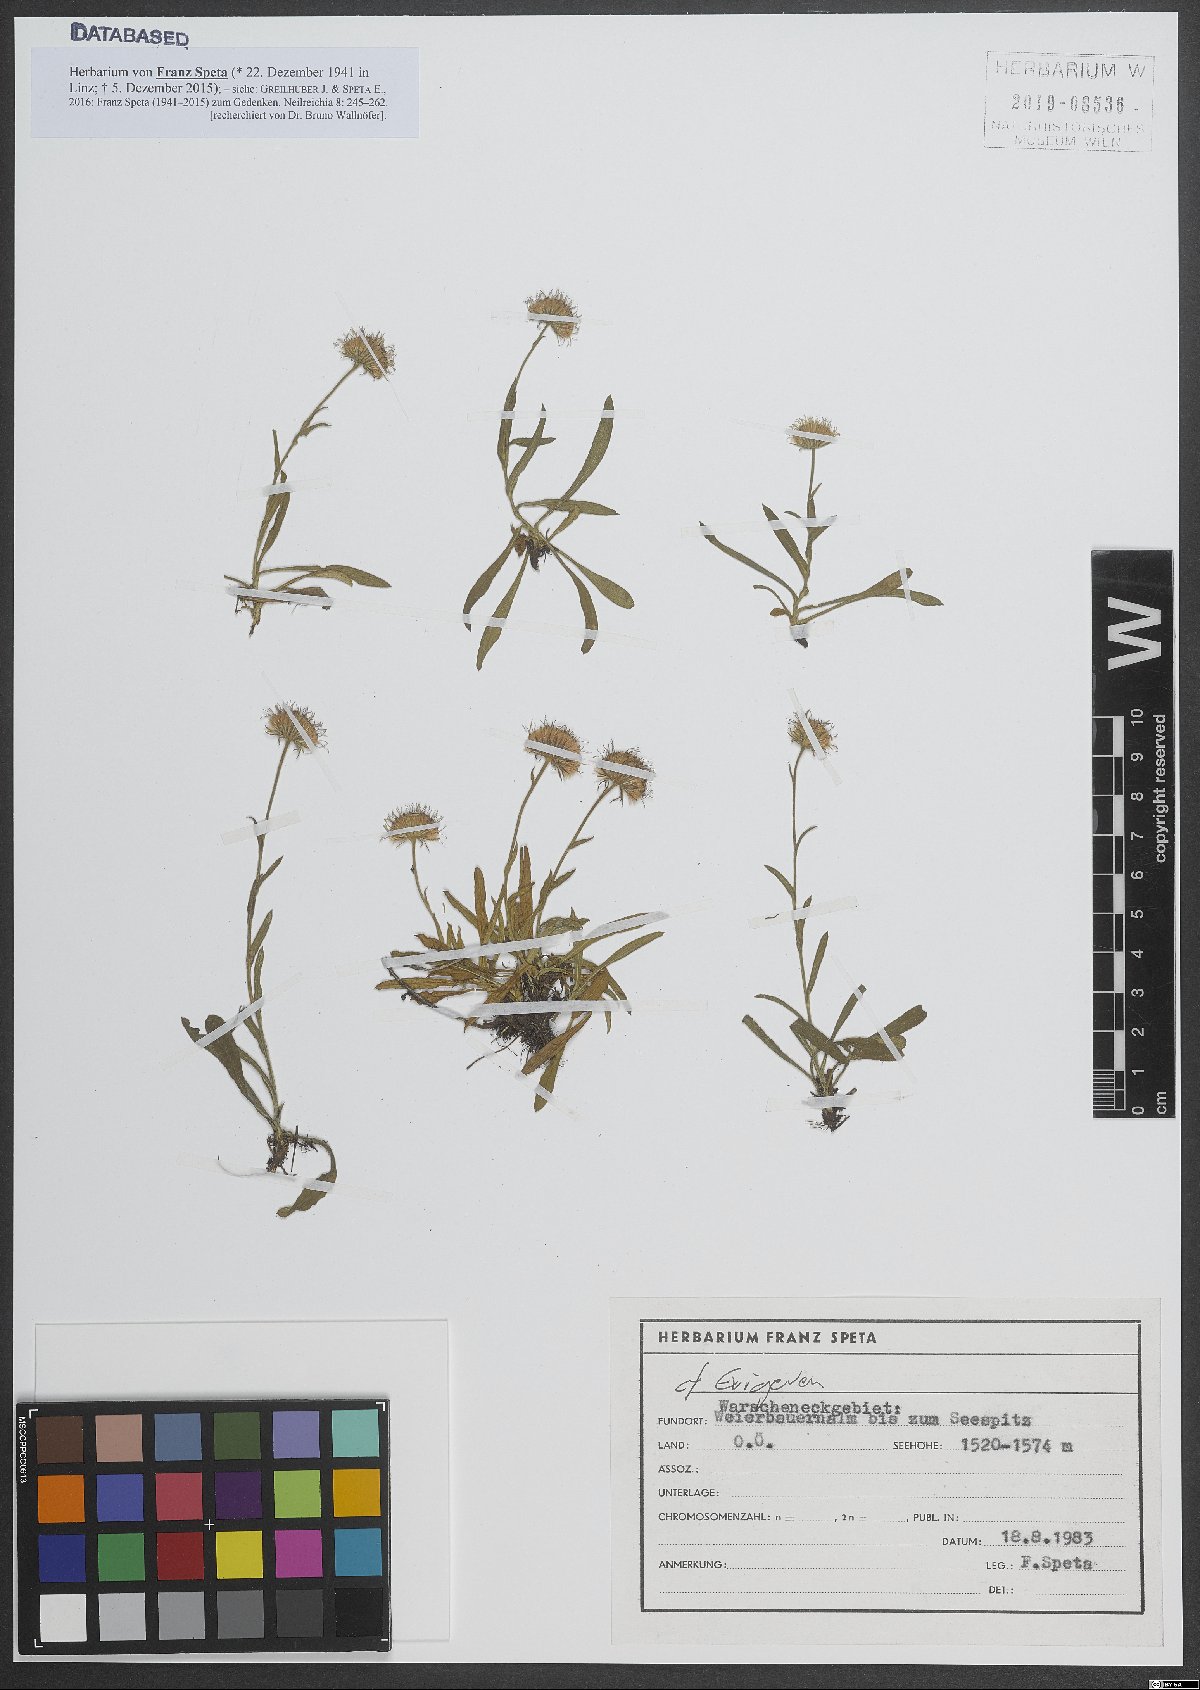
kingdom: Plantae
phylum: Tracheophyta
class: Magnoliopsida
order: Asterales
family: Asteraceae
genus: Erigeron
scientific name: Erigeron
